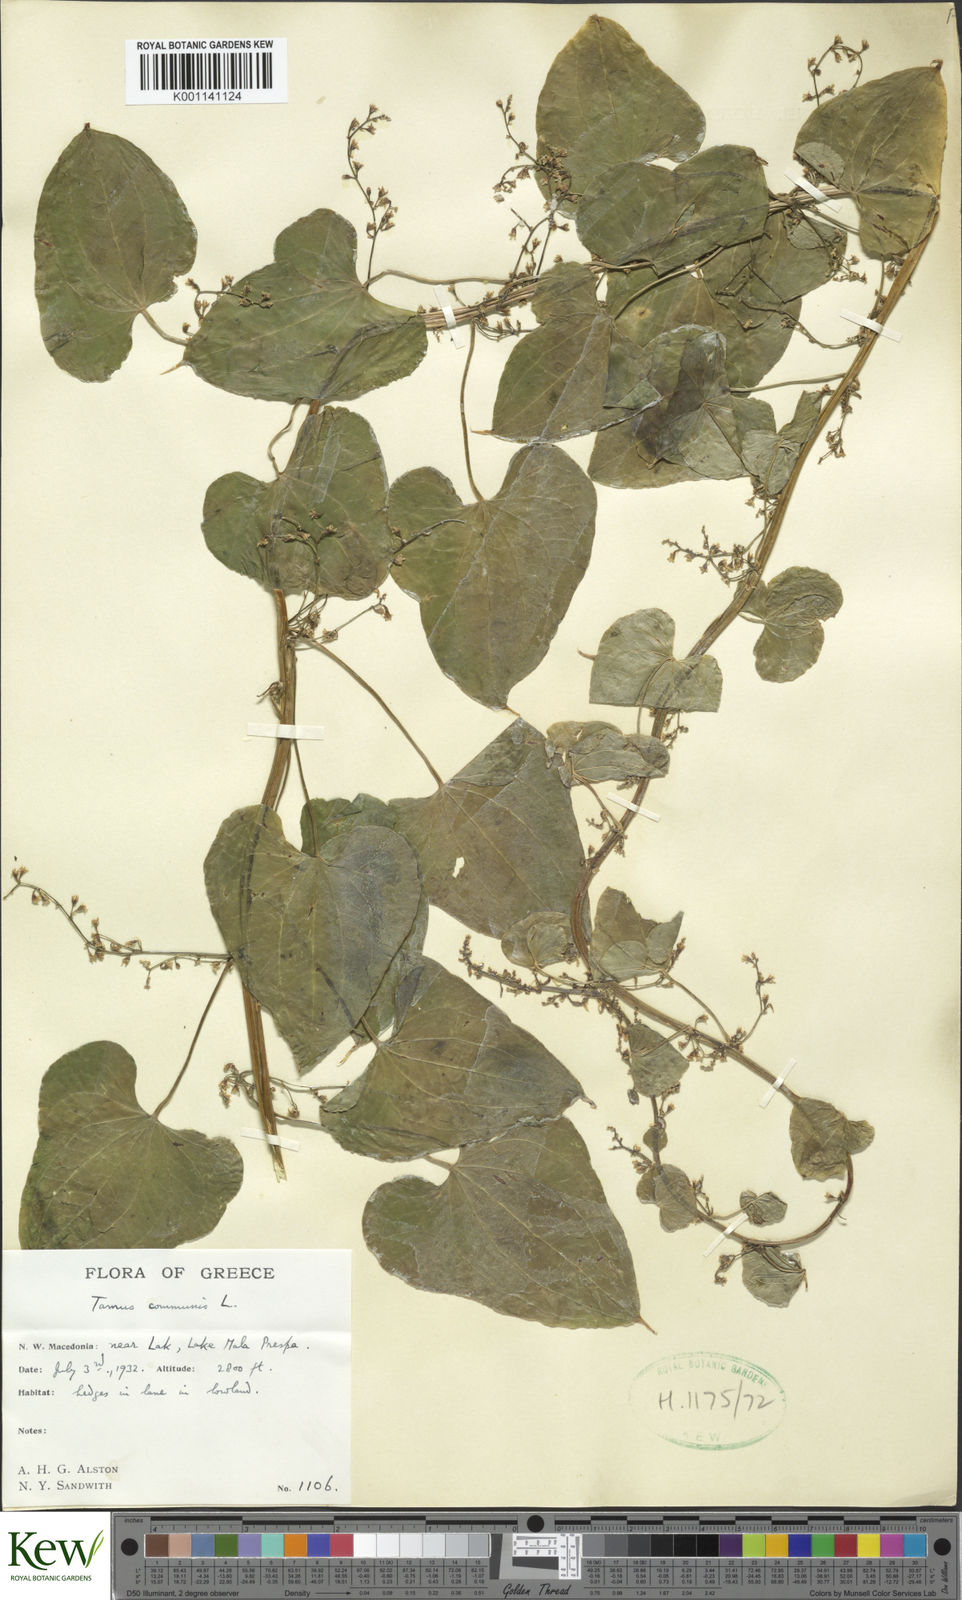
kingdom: Plantae
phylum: Tracheophyta
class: Liliopsida
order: Dioscoreales
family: Dioscoreaceae
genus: Dioscorea
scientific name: Dioscorea communis
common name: Black-bindweed
